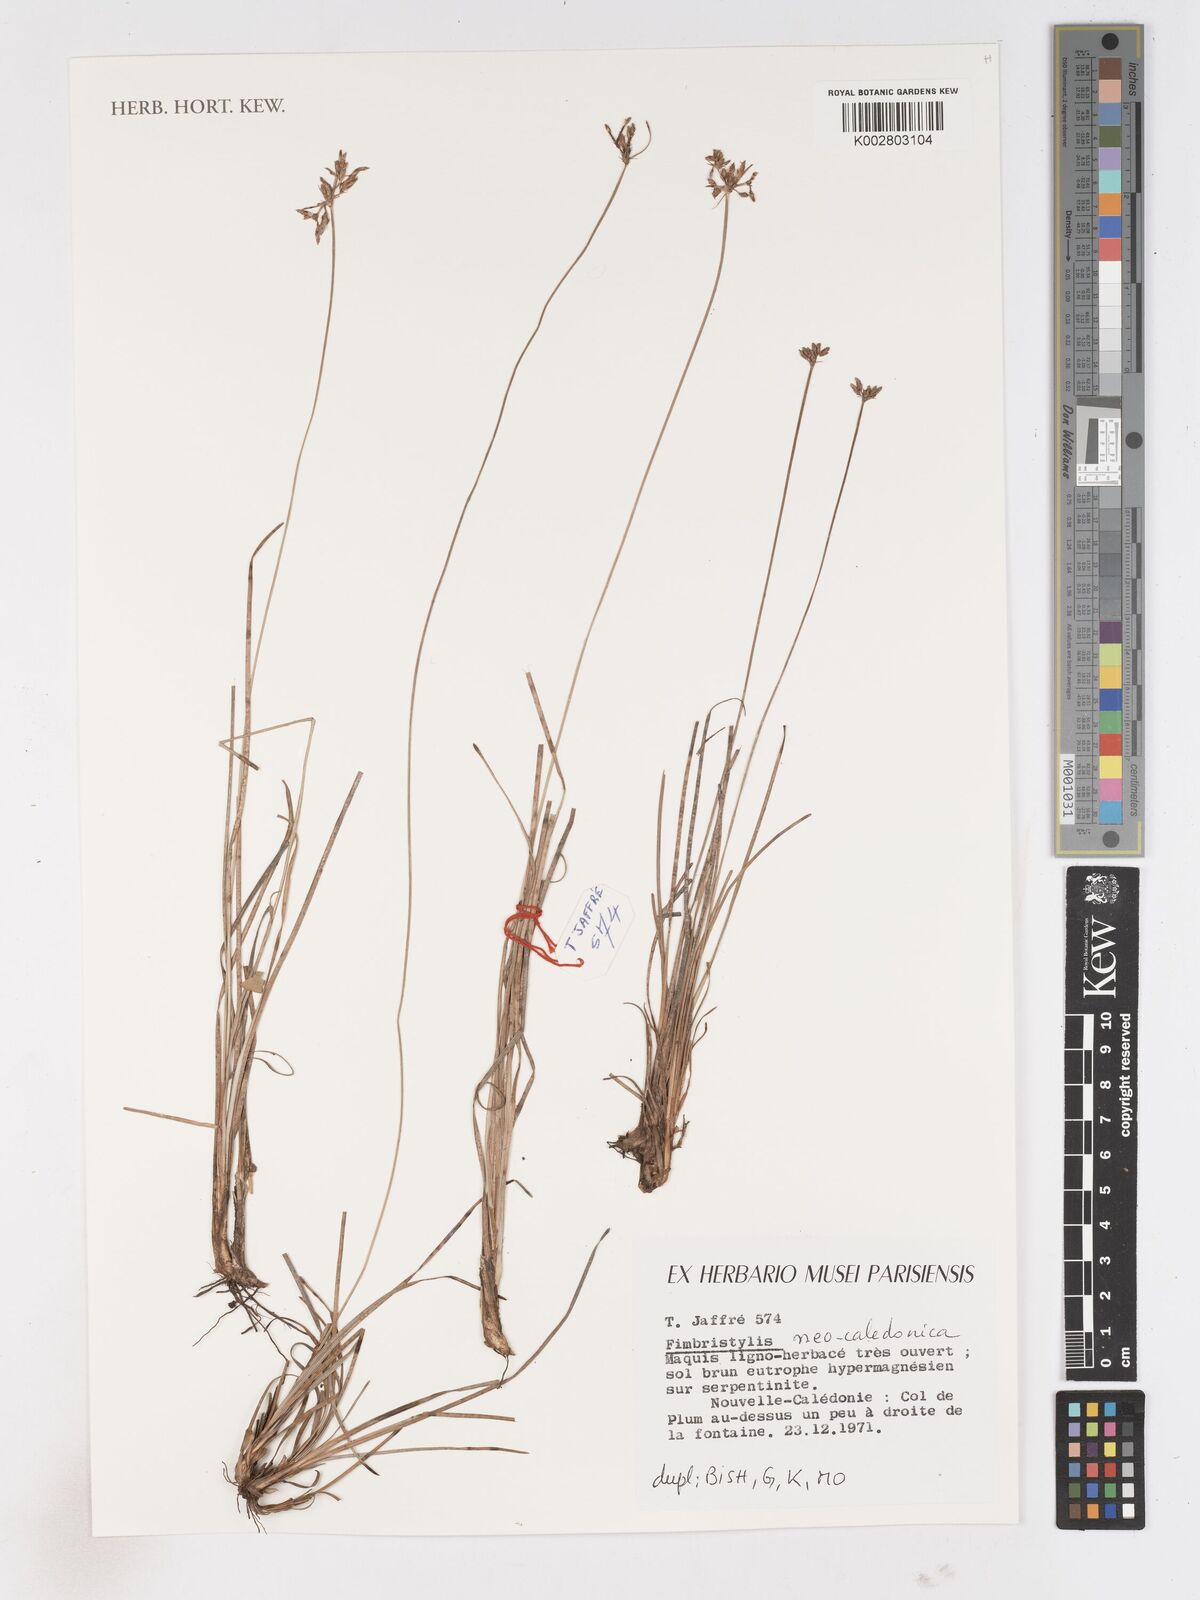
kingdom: Plantae
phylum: Tracheophyta
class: Liliopsida
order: Poales
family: Cyperaceae
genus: Fimbristylis
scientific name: Fimbristylis neocaledonica
